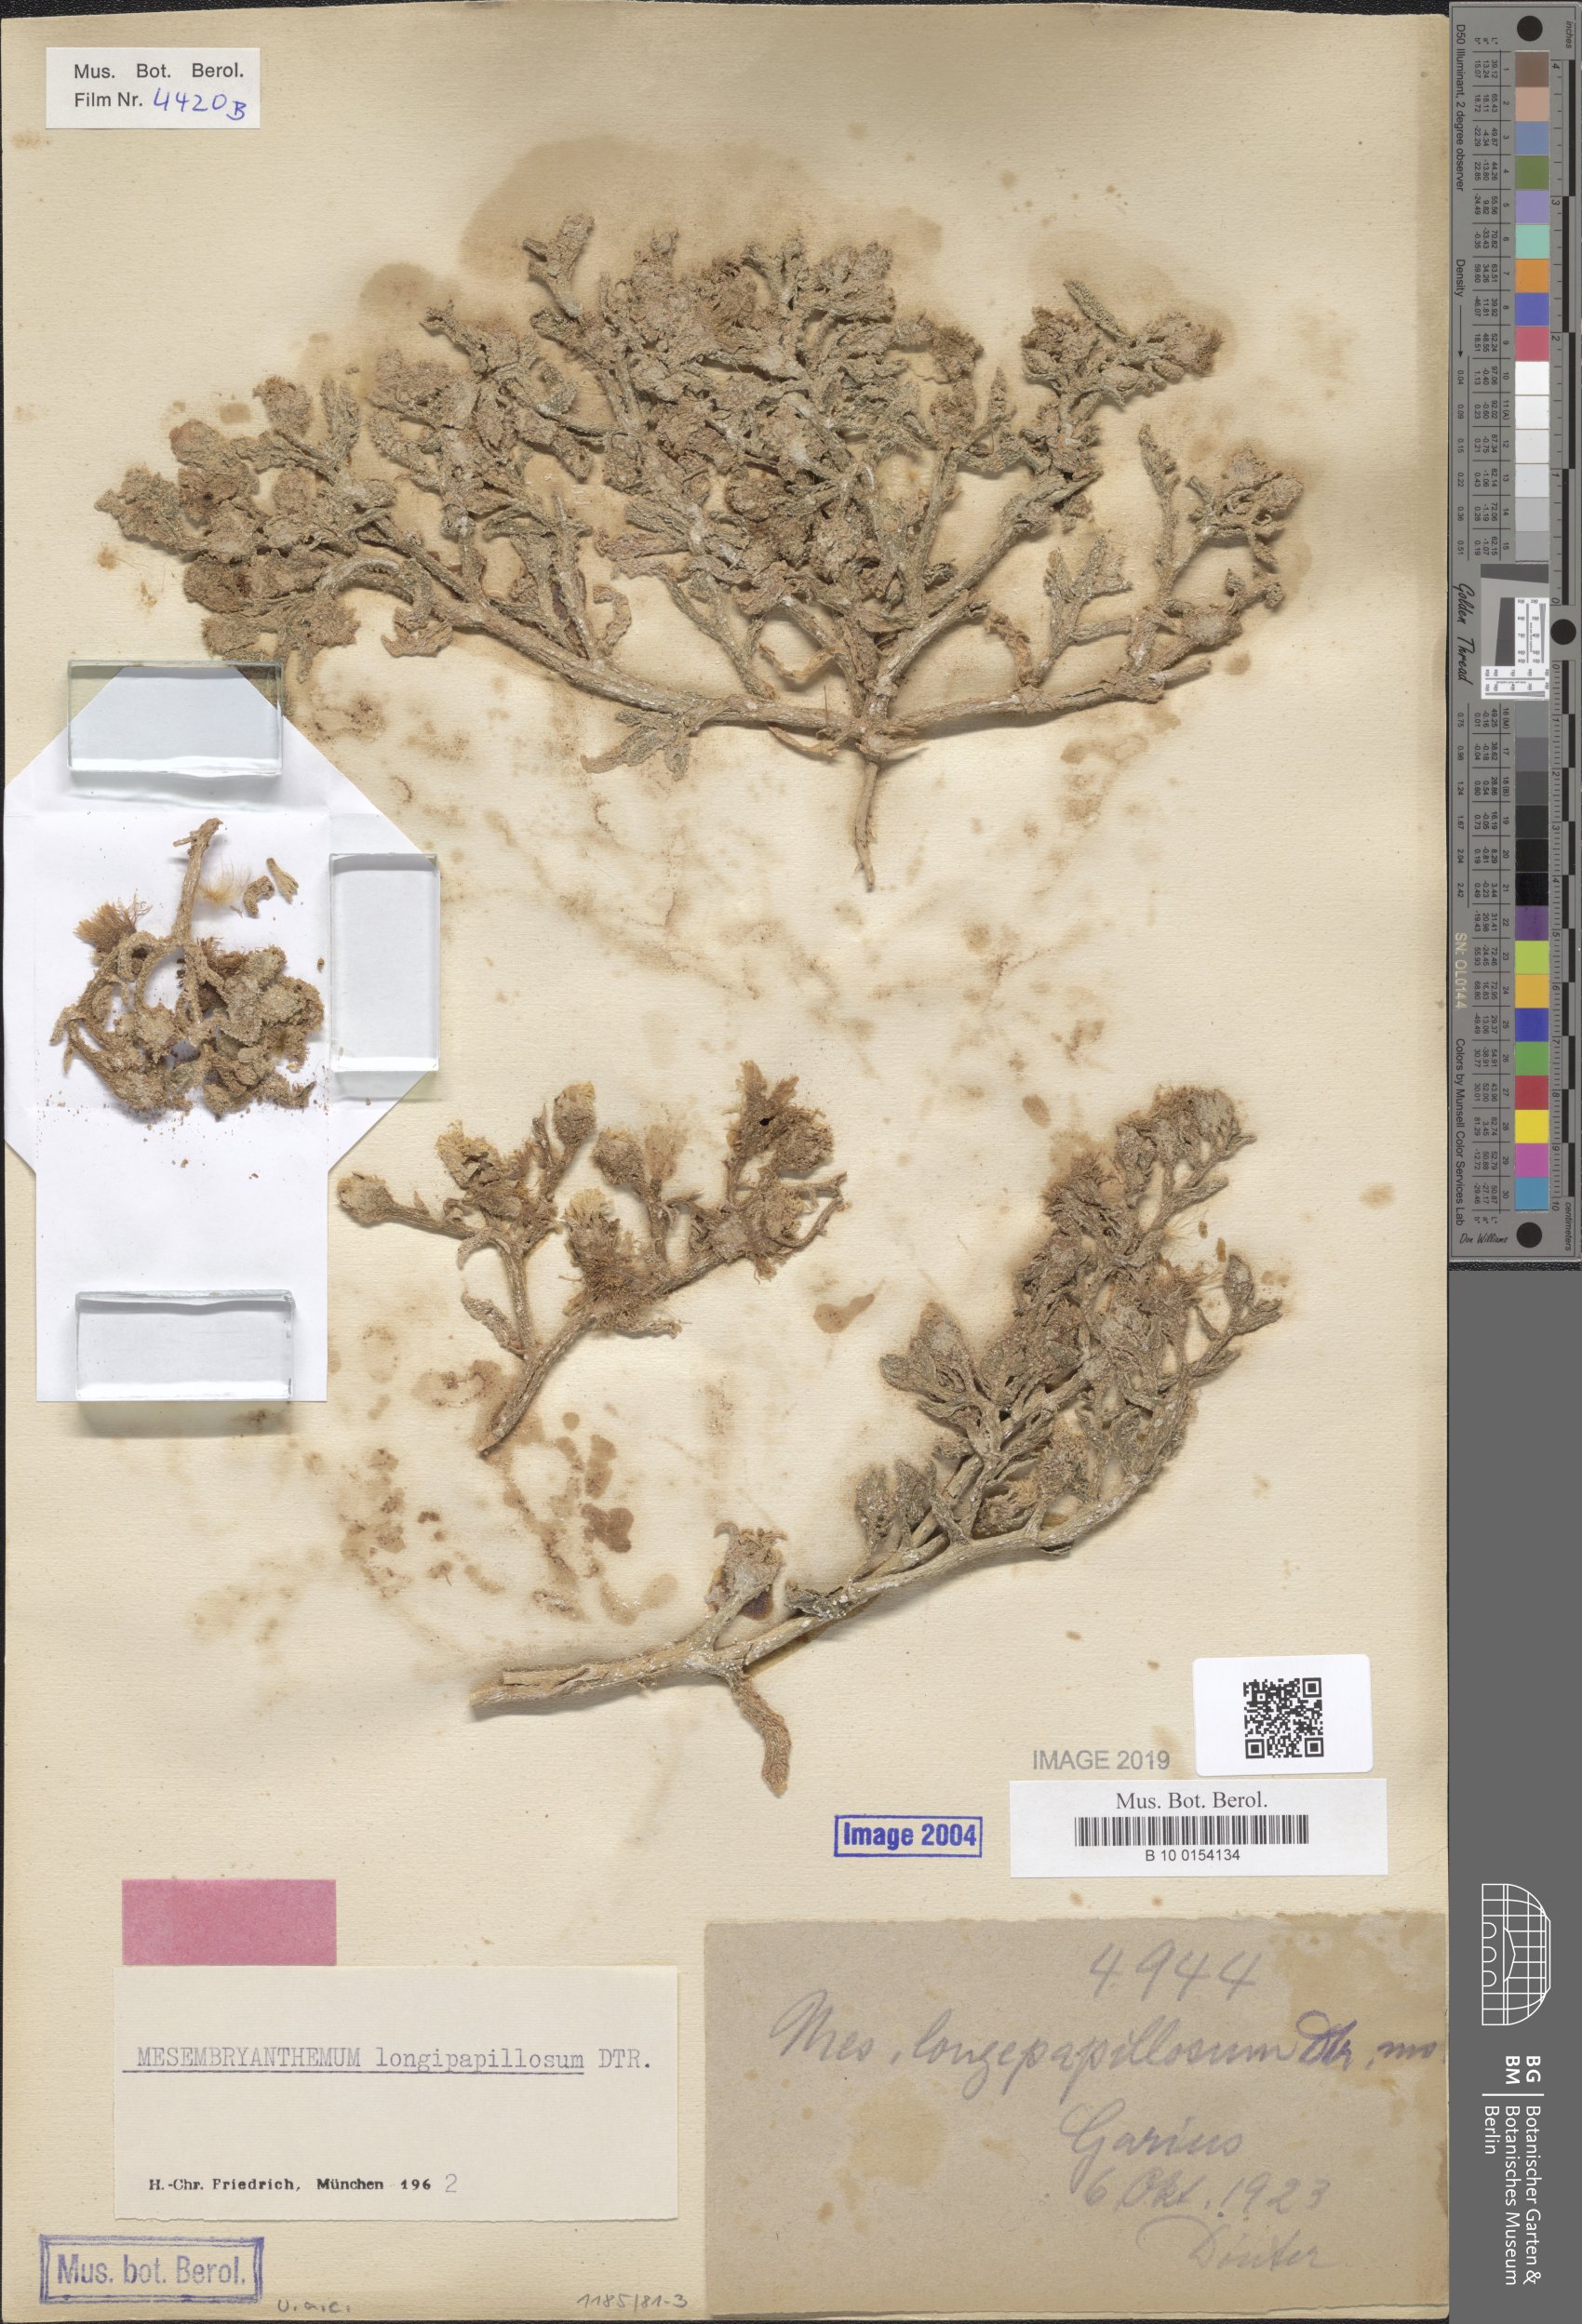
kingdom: Plantae
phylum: Tracheophyta
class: Magnoliopsida
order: Caryophyllales
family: Aizoaceae
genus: Mesembryanthemum
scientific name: Mesembryanthemum inachabense
